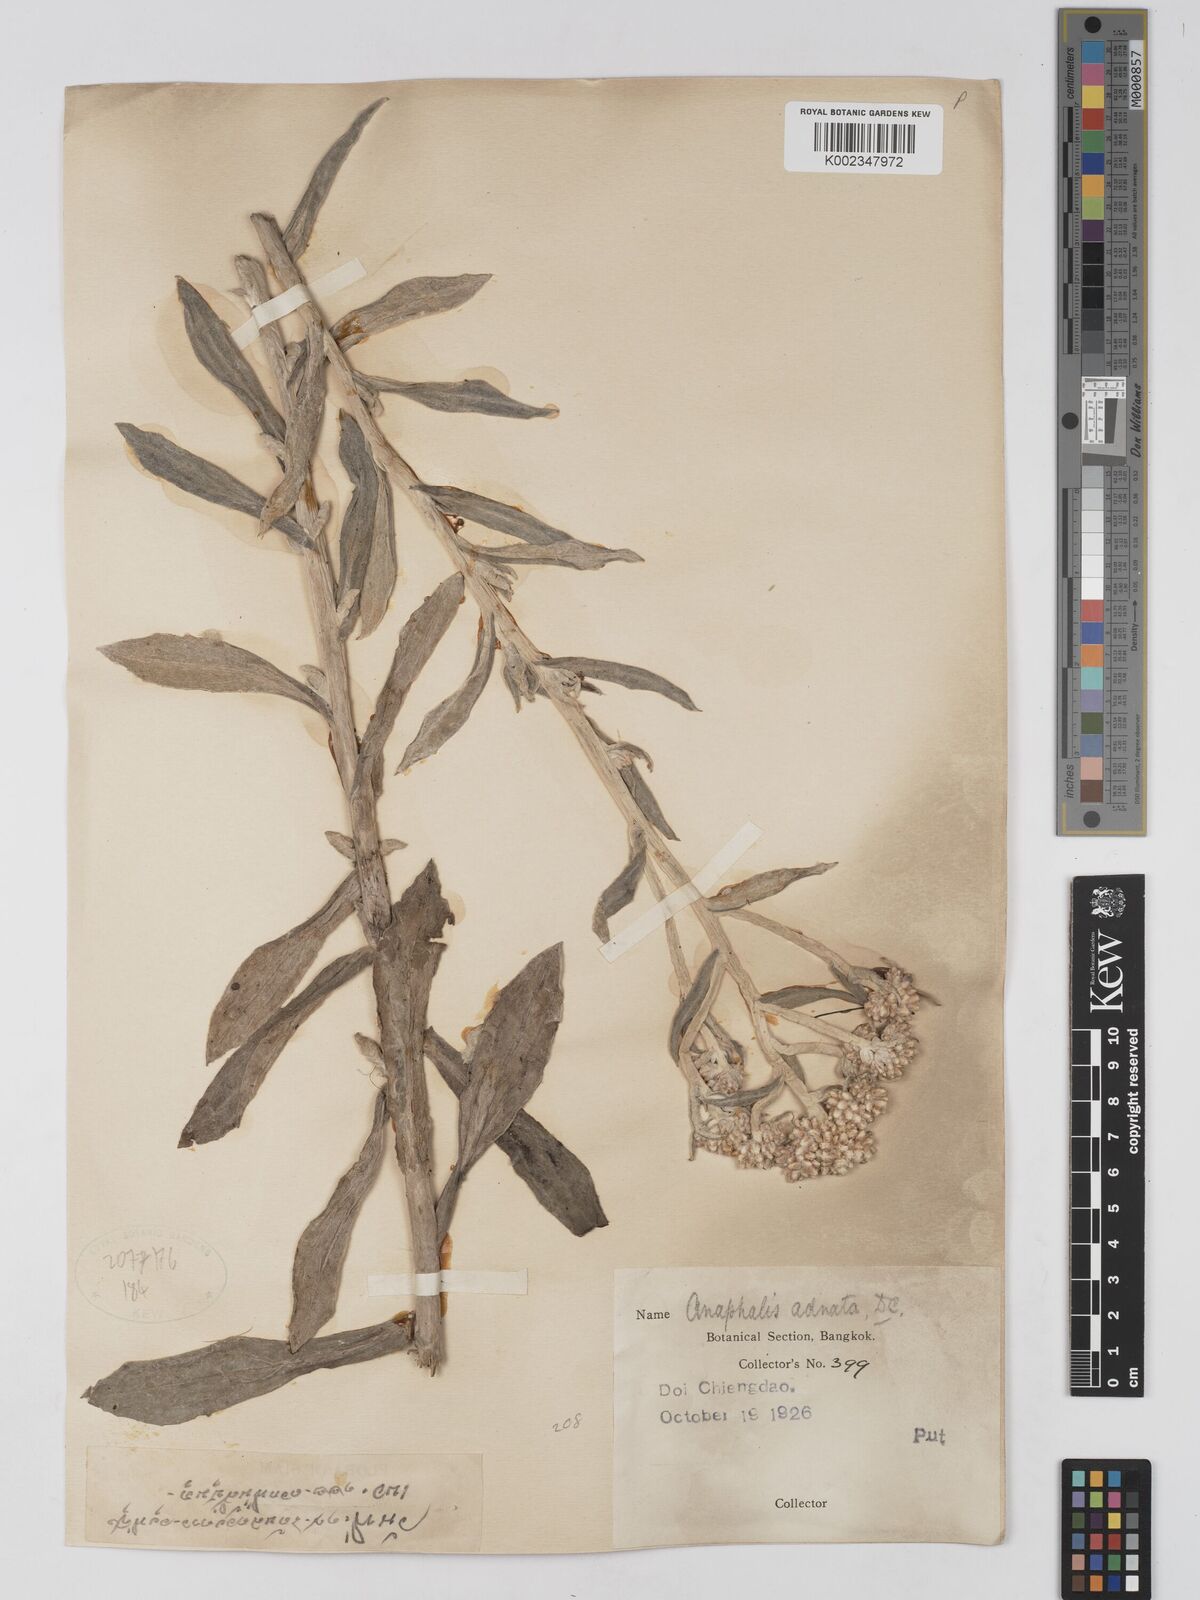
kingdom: Plantae
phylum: Tracheophyta
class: Magnoliopsida
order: Asterales
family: Asteraceae
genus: Pseudognaphalium
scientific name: Pseudognaphalium adnatum
